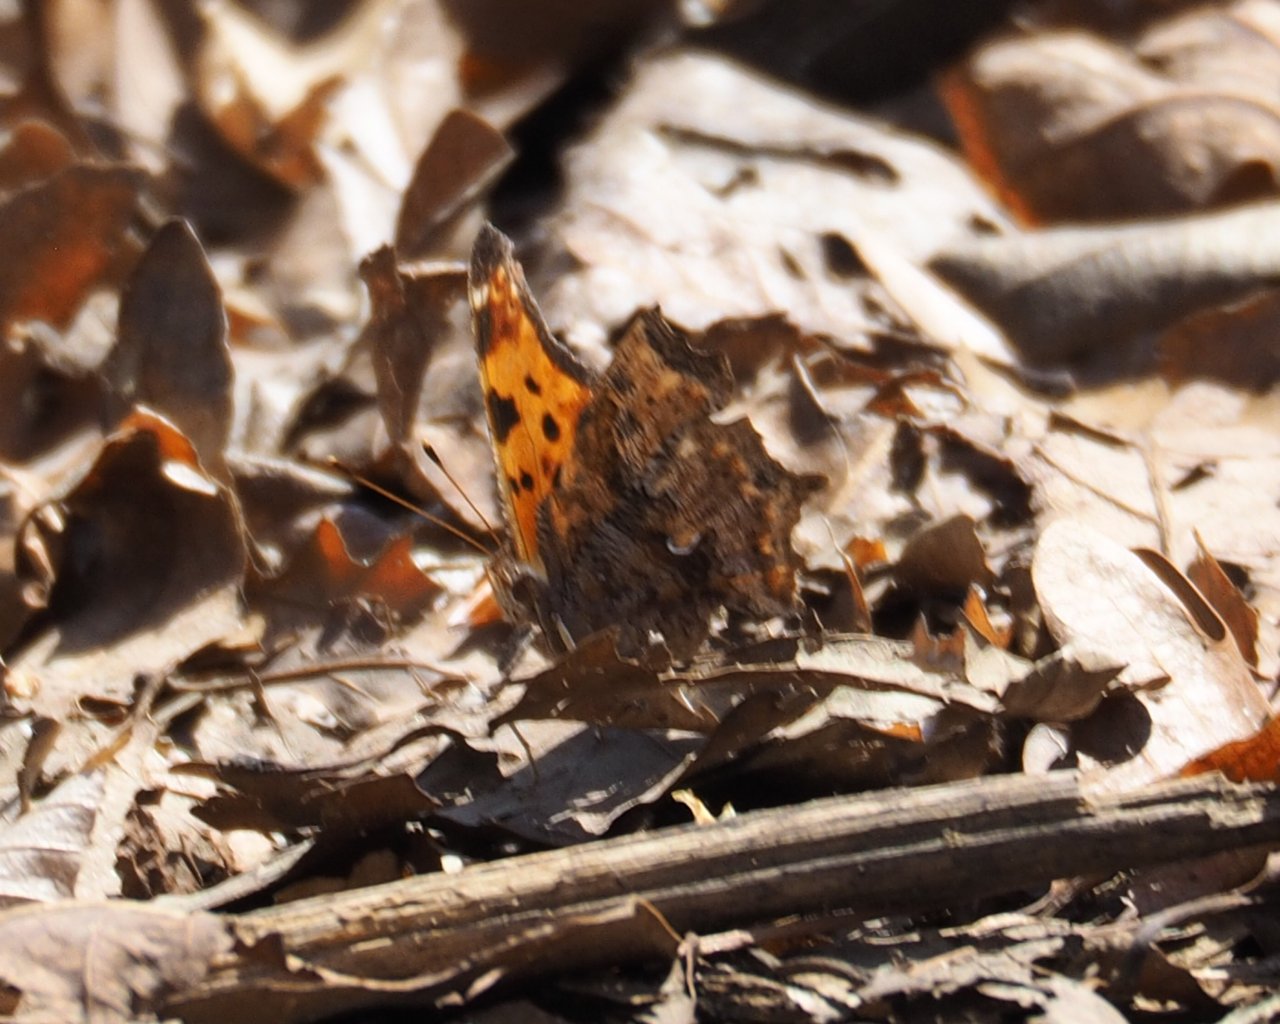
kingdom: Animalia
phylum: Arthropoda
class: Insecta
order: Lepidoptera
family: Nymphalidae
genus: Polygonia
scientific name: Polygonia comma
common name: Eastern Comma
